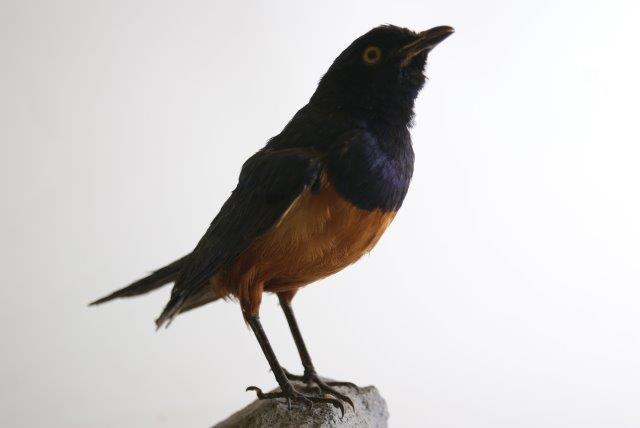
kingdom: Animalia
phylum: Chordata
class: Aves
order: Passeriformes
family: Sturnidae
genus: Lamprotornis
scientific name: Lamprotornis hildebrandti
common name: Hildebrandt's starling
